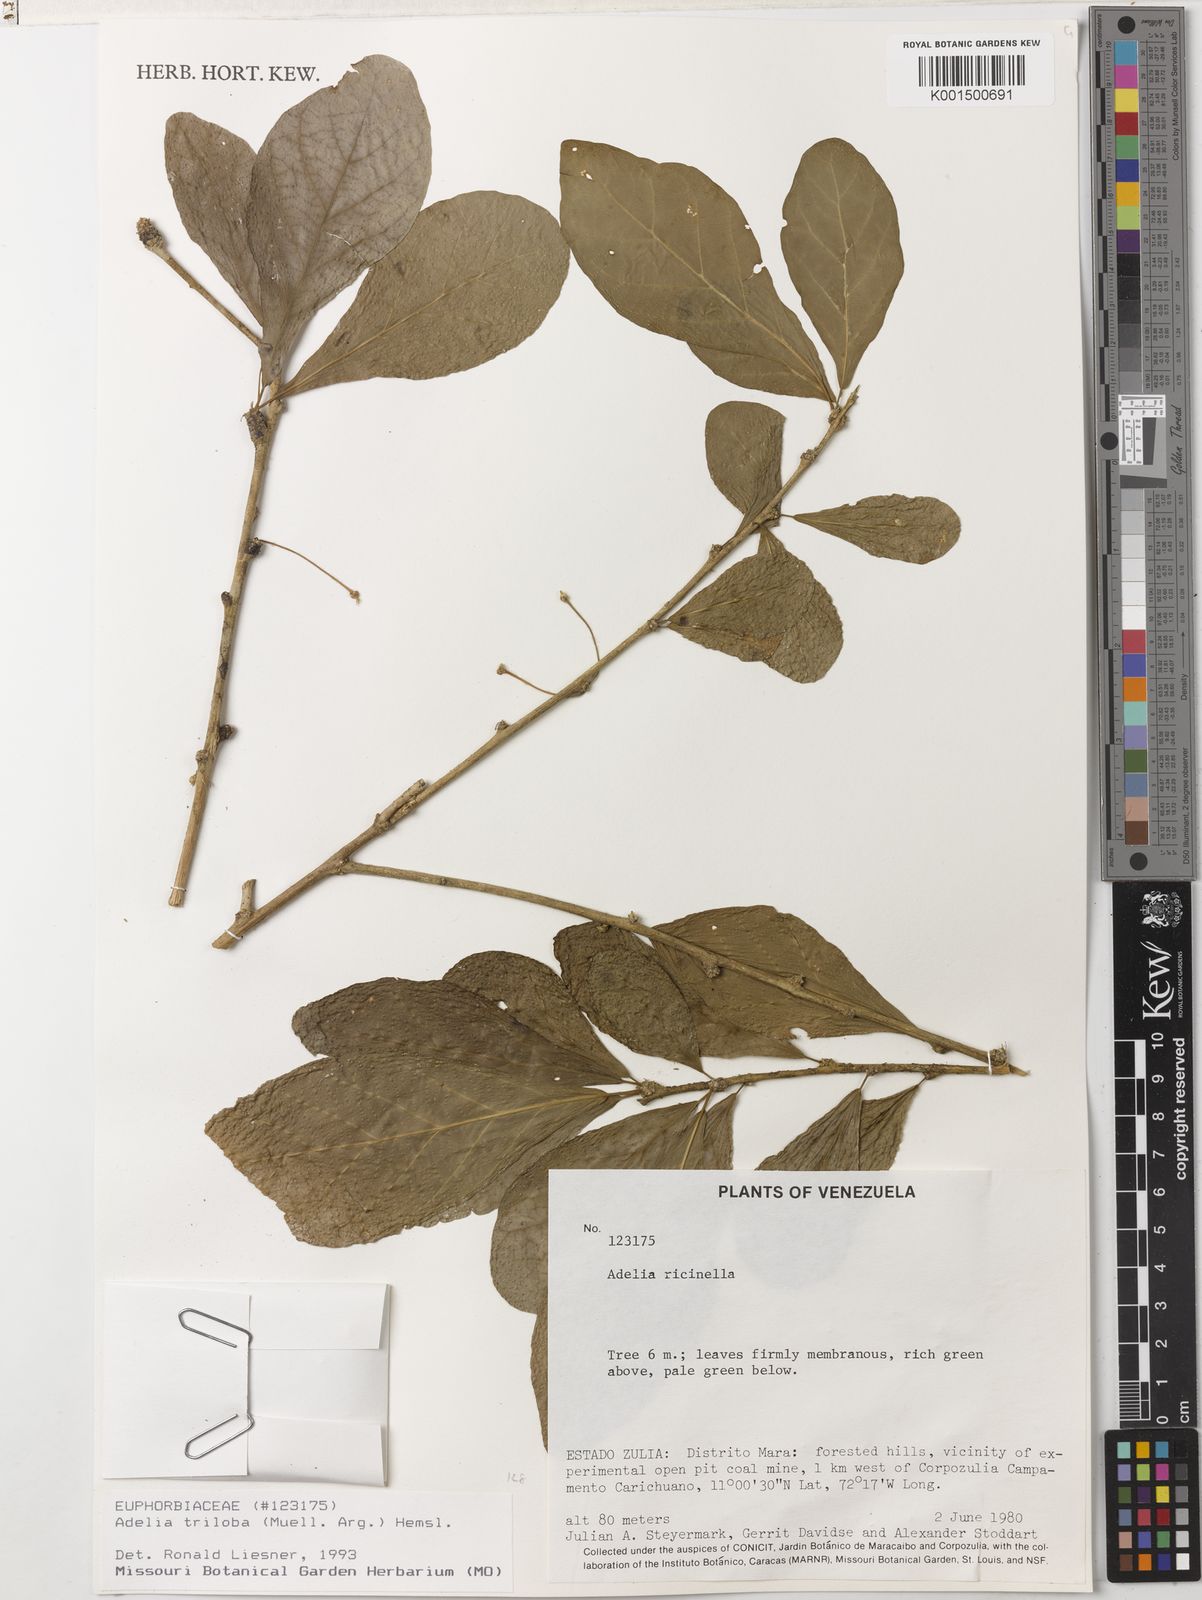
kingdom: Plantae
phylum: Tracheophyta
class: Magnoliopsida
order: Malpighiales
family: Euphorbiaceae
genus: Adelia
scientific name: Adelia triloba
